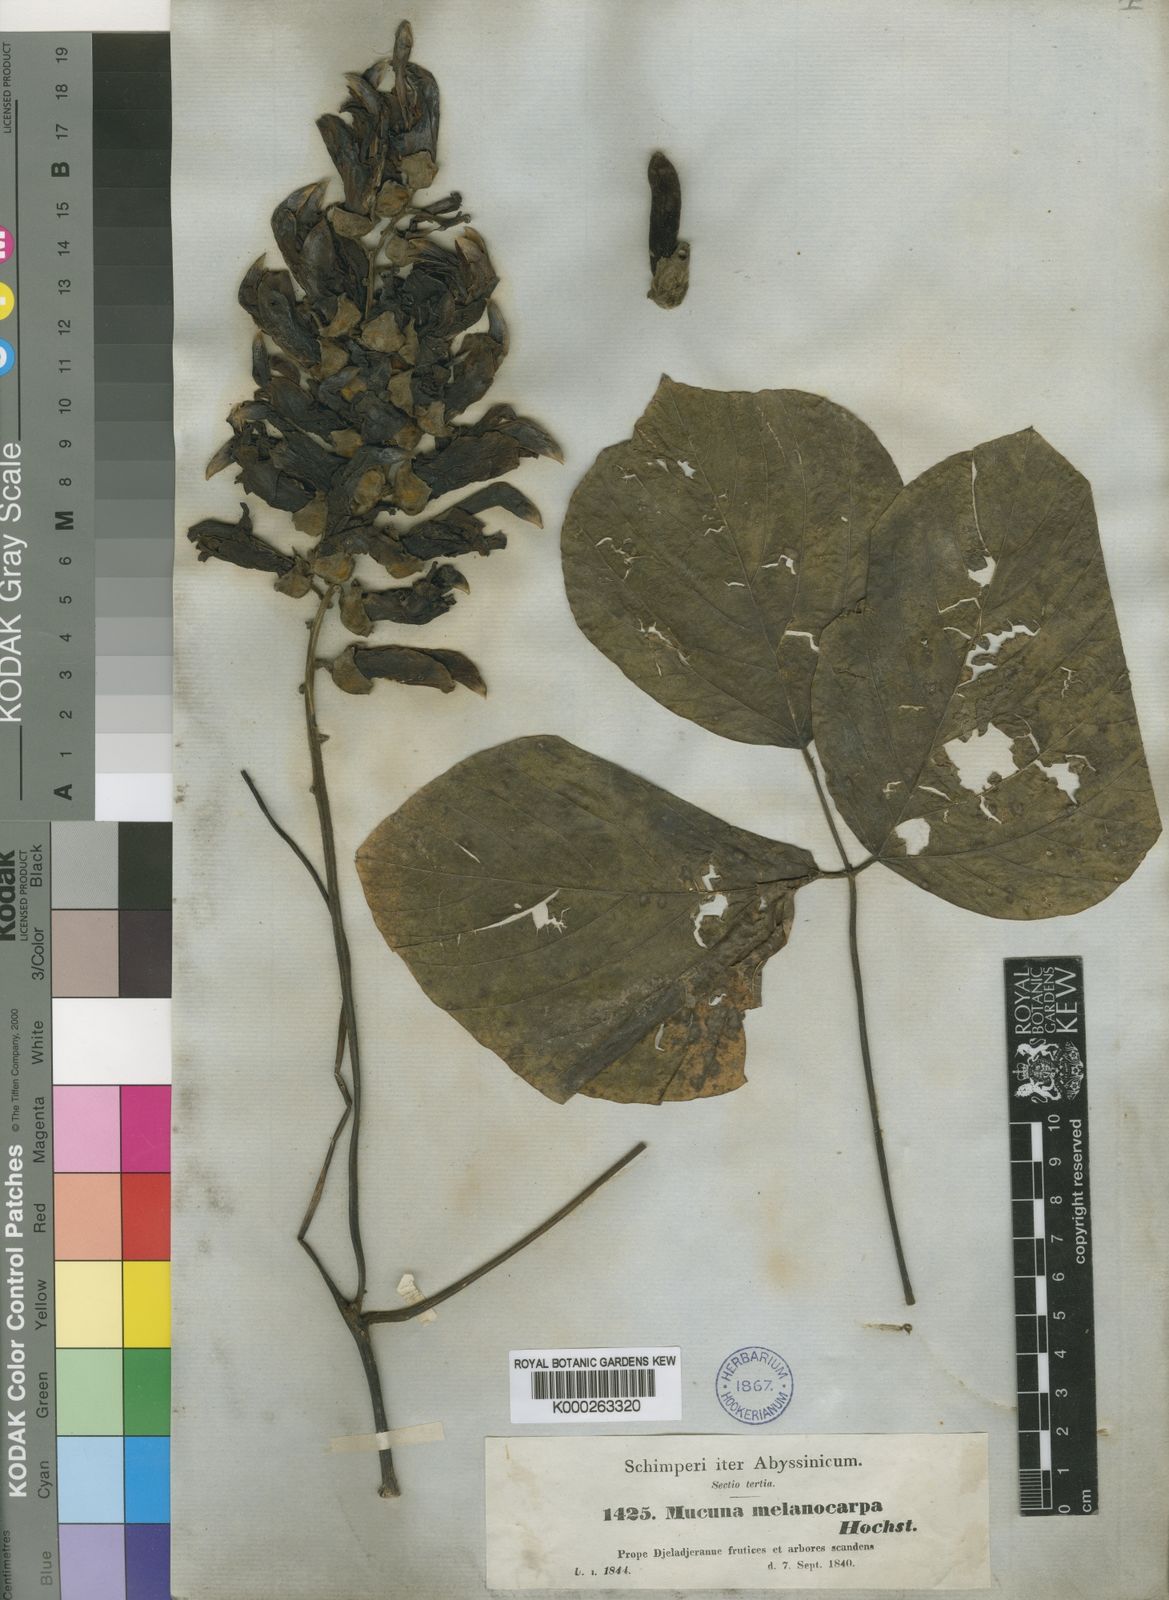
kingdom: Plantae
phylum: Tracheophyta
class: Magnoliopsida
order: Fabales
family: Fabaceae
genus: Mucuna
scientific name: Mucuna melanocarpa
